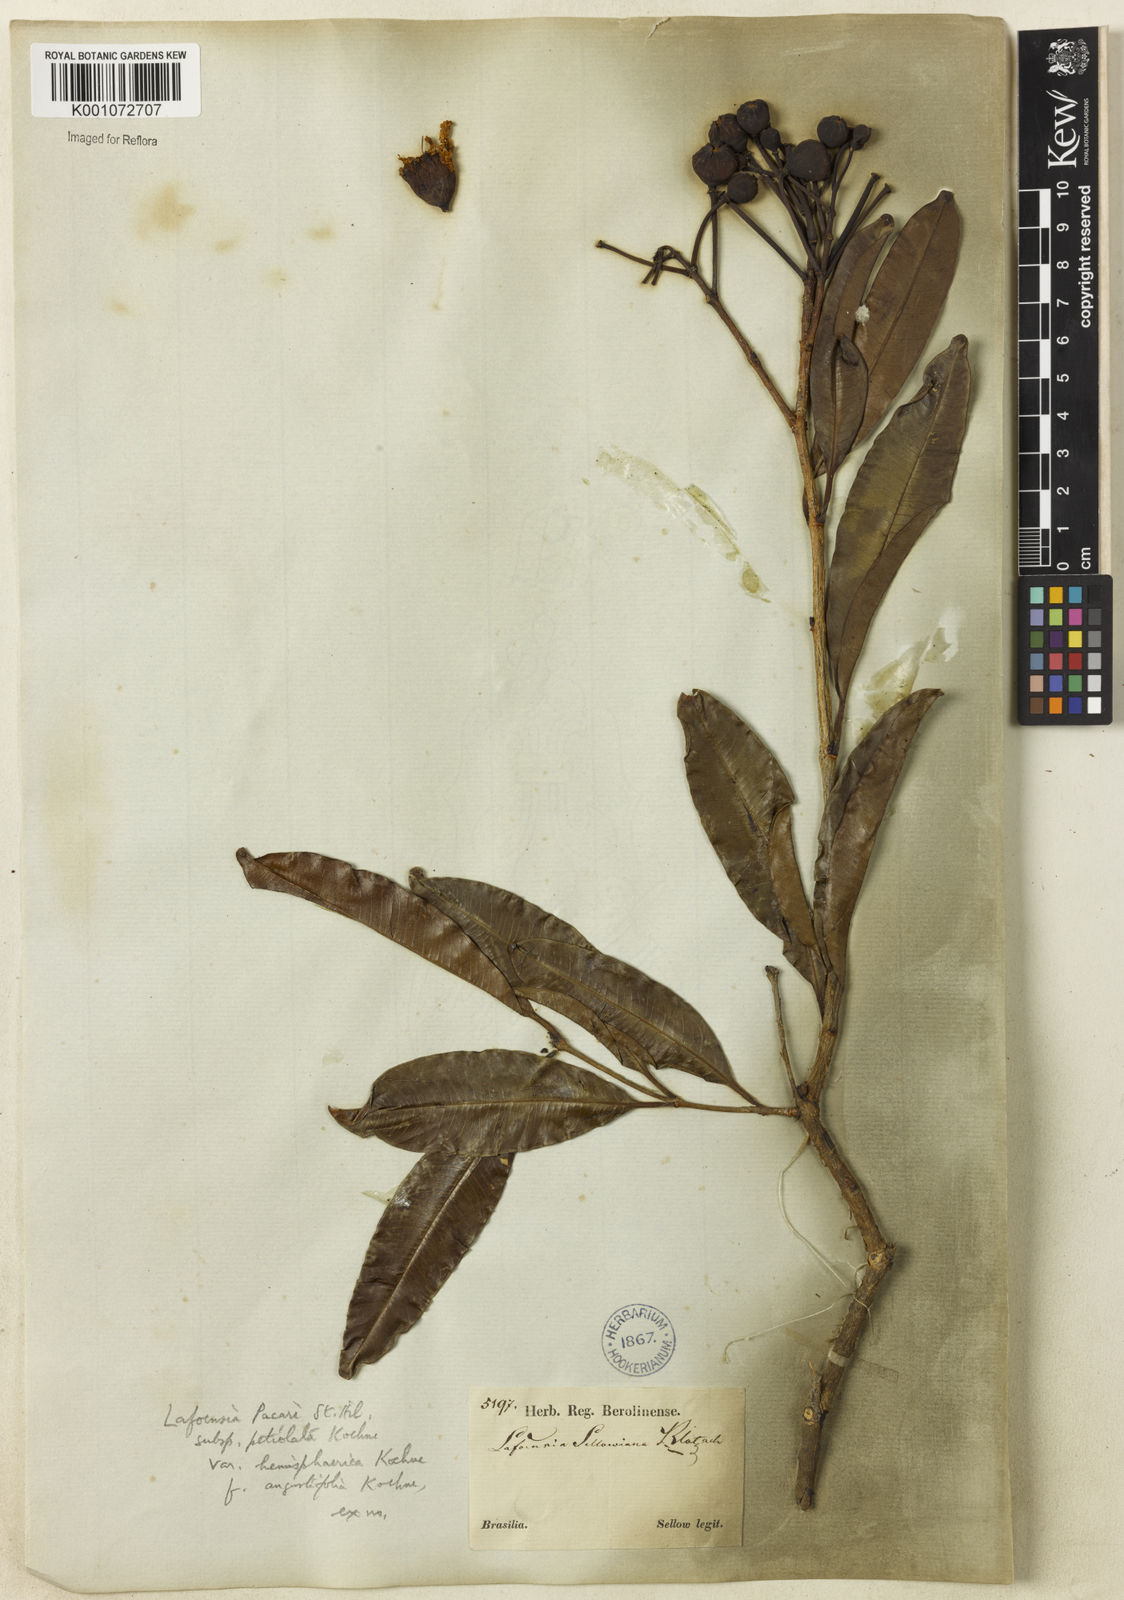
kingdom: Plantae
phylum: Tracheophyta
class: Magnoliopsida
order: Myrtales
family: Lythraceae
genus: Lafoensia
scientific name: Lafoensia pacari
